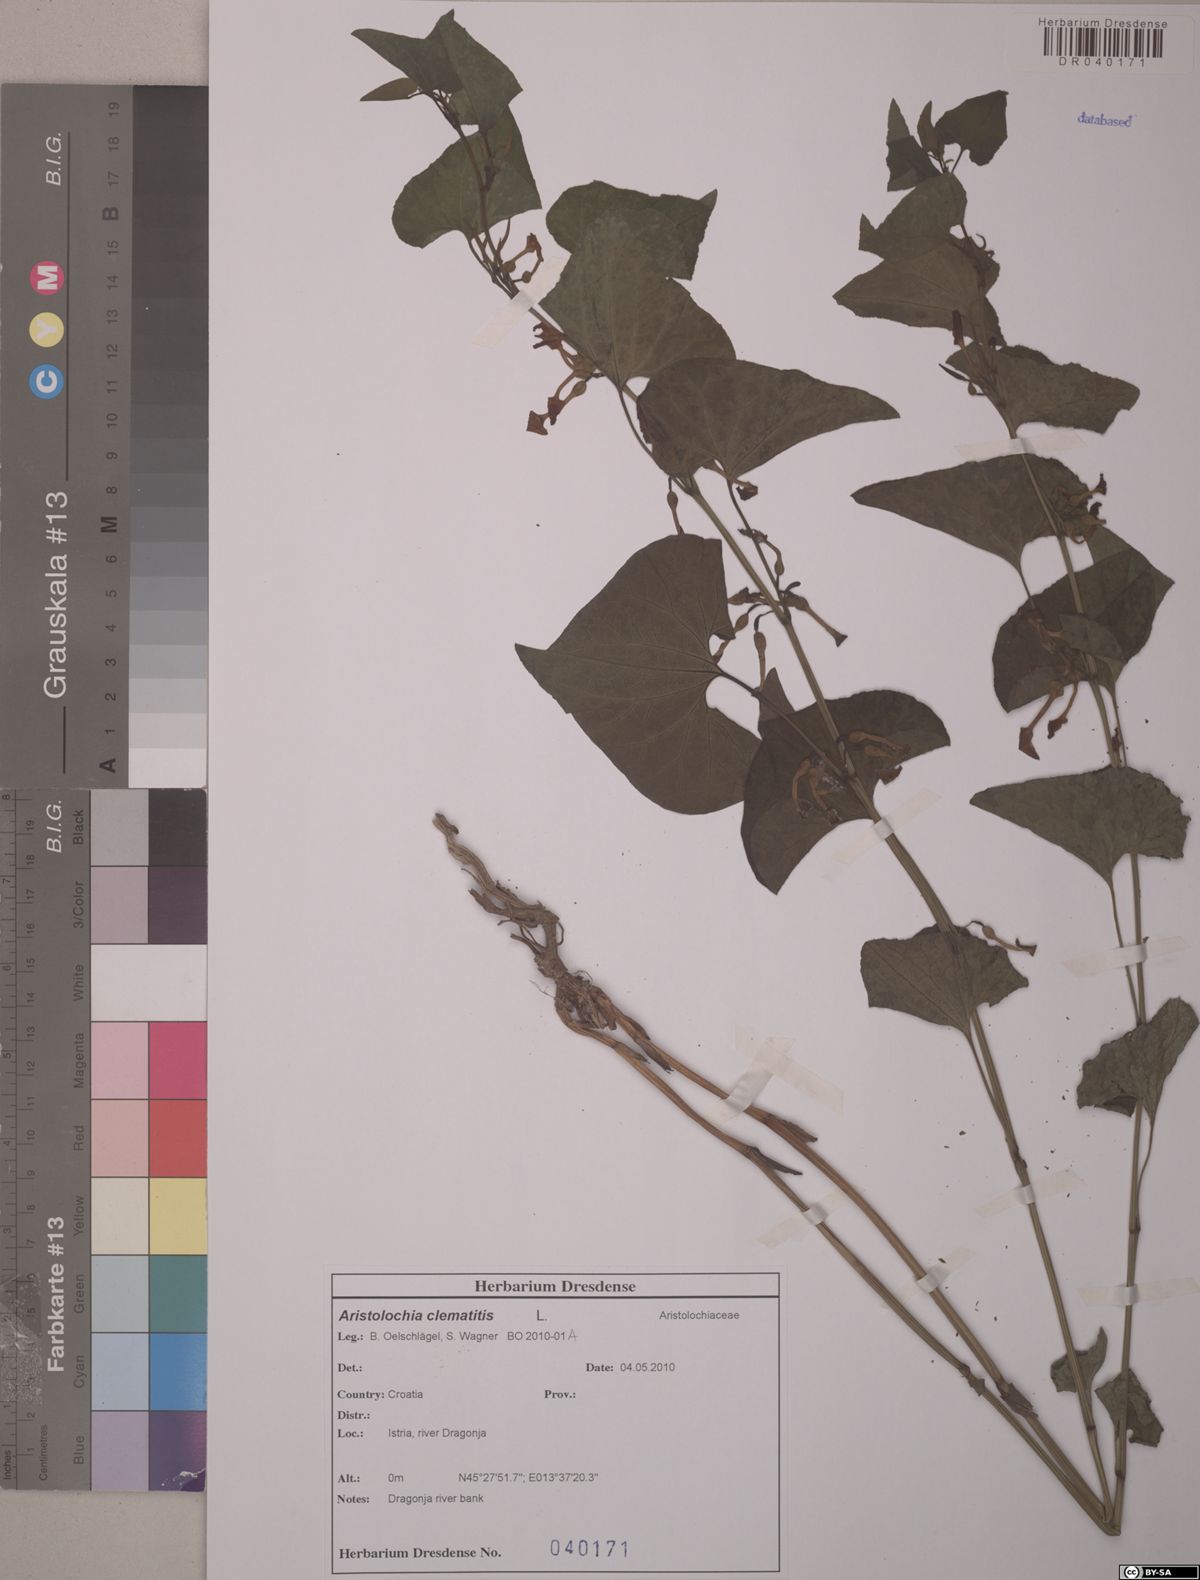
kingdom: Plantae
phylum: Tracheophyta
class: Magnoliopsida
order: Piperales
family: Aristolochiaceae
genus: Aristolochia
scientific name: Aristolochia clematitis
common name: Birthwort
